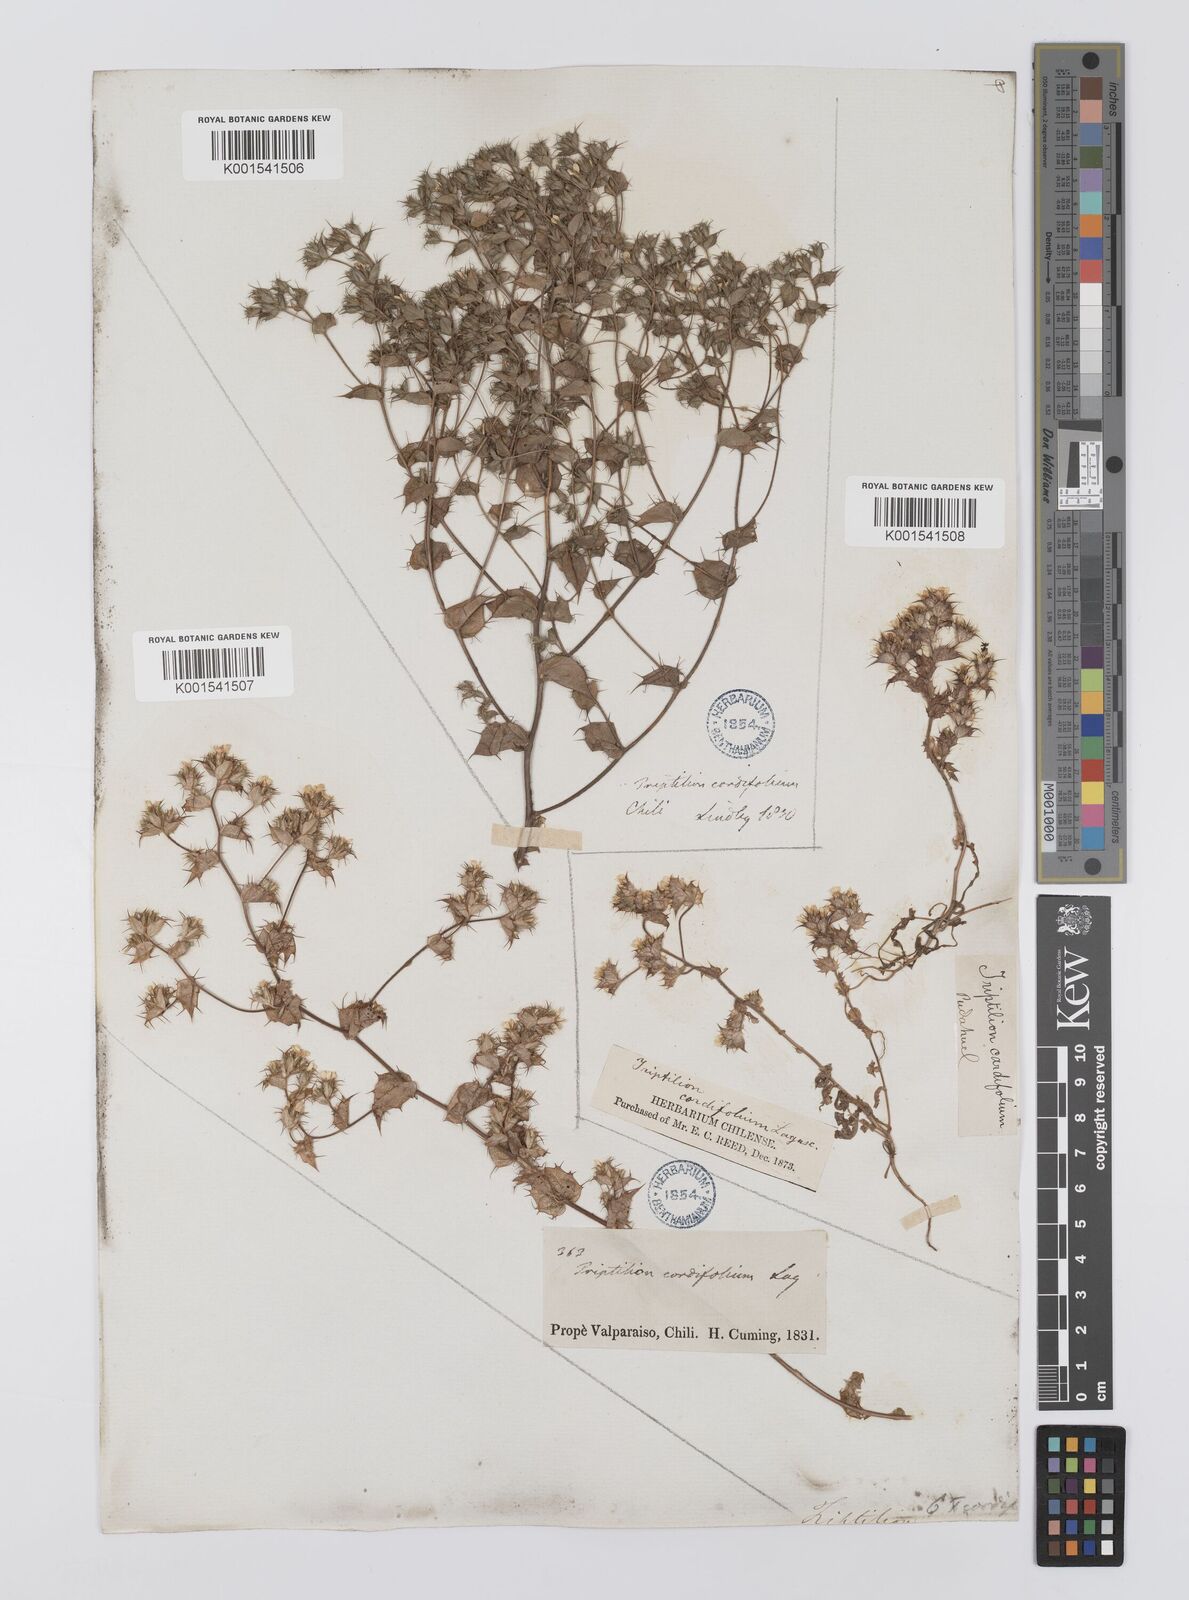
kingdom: Plantae
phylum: Tracheophyta
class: Magnoliopsida
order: Asterales
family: Asteraceae
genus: Triptilion
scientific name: Triptilion cordifolium
